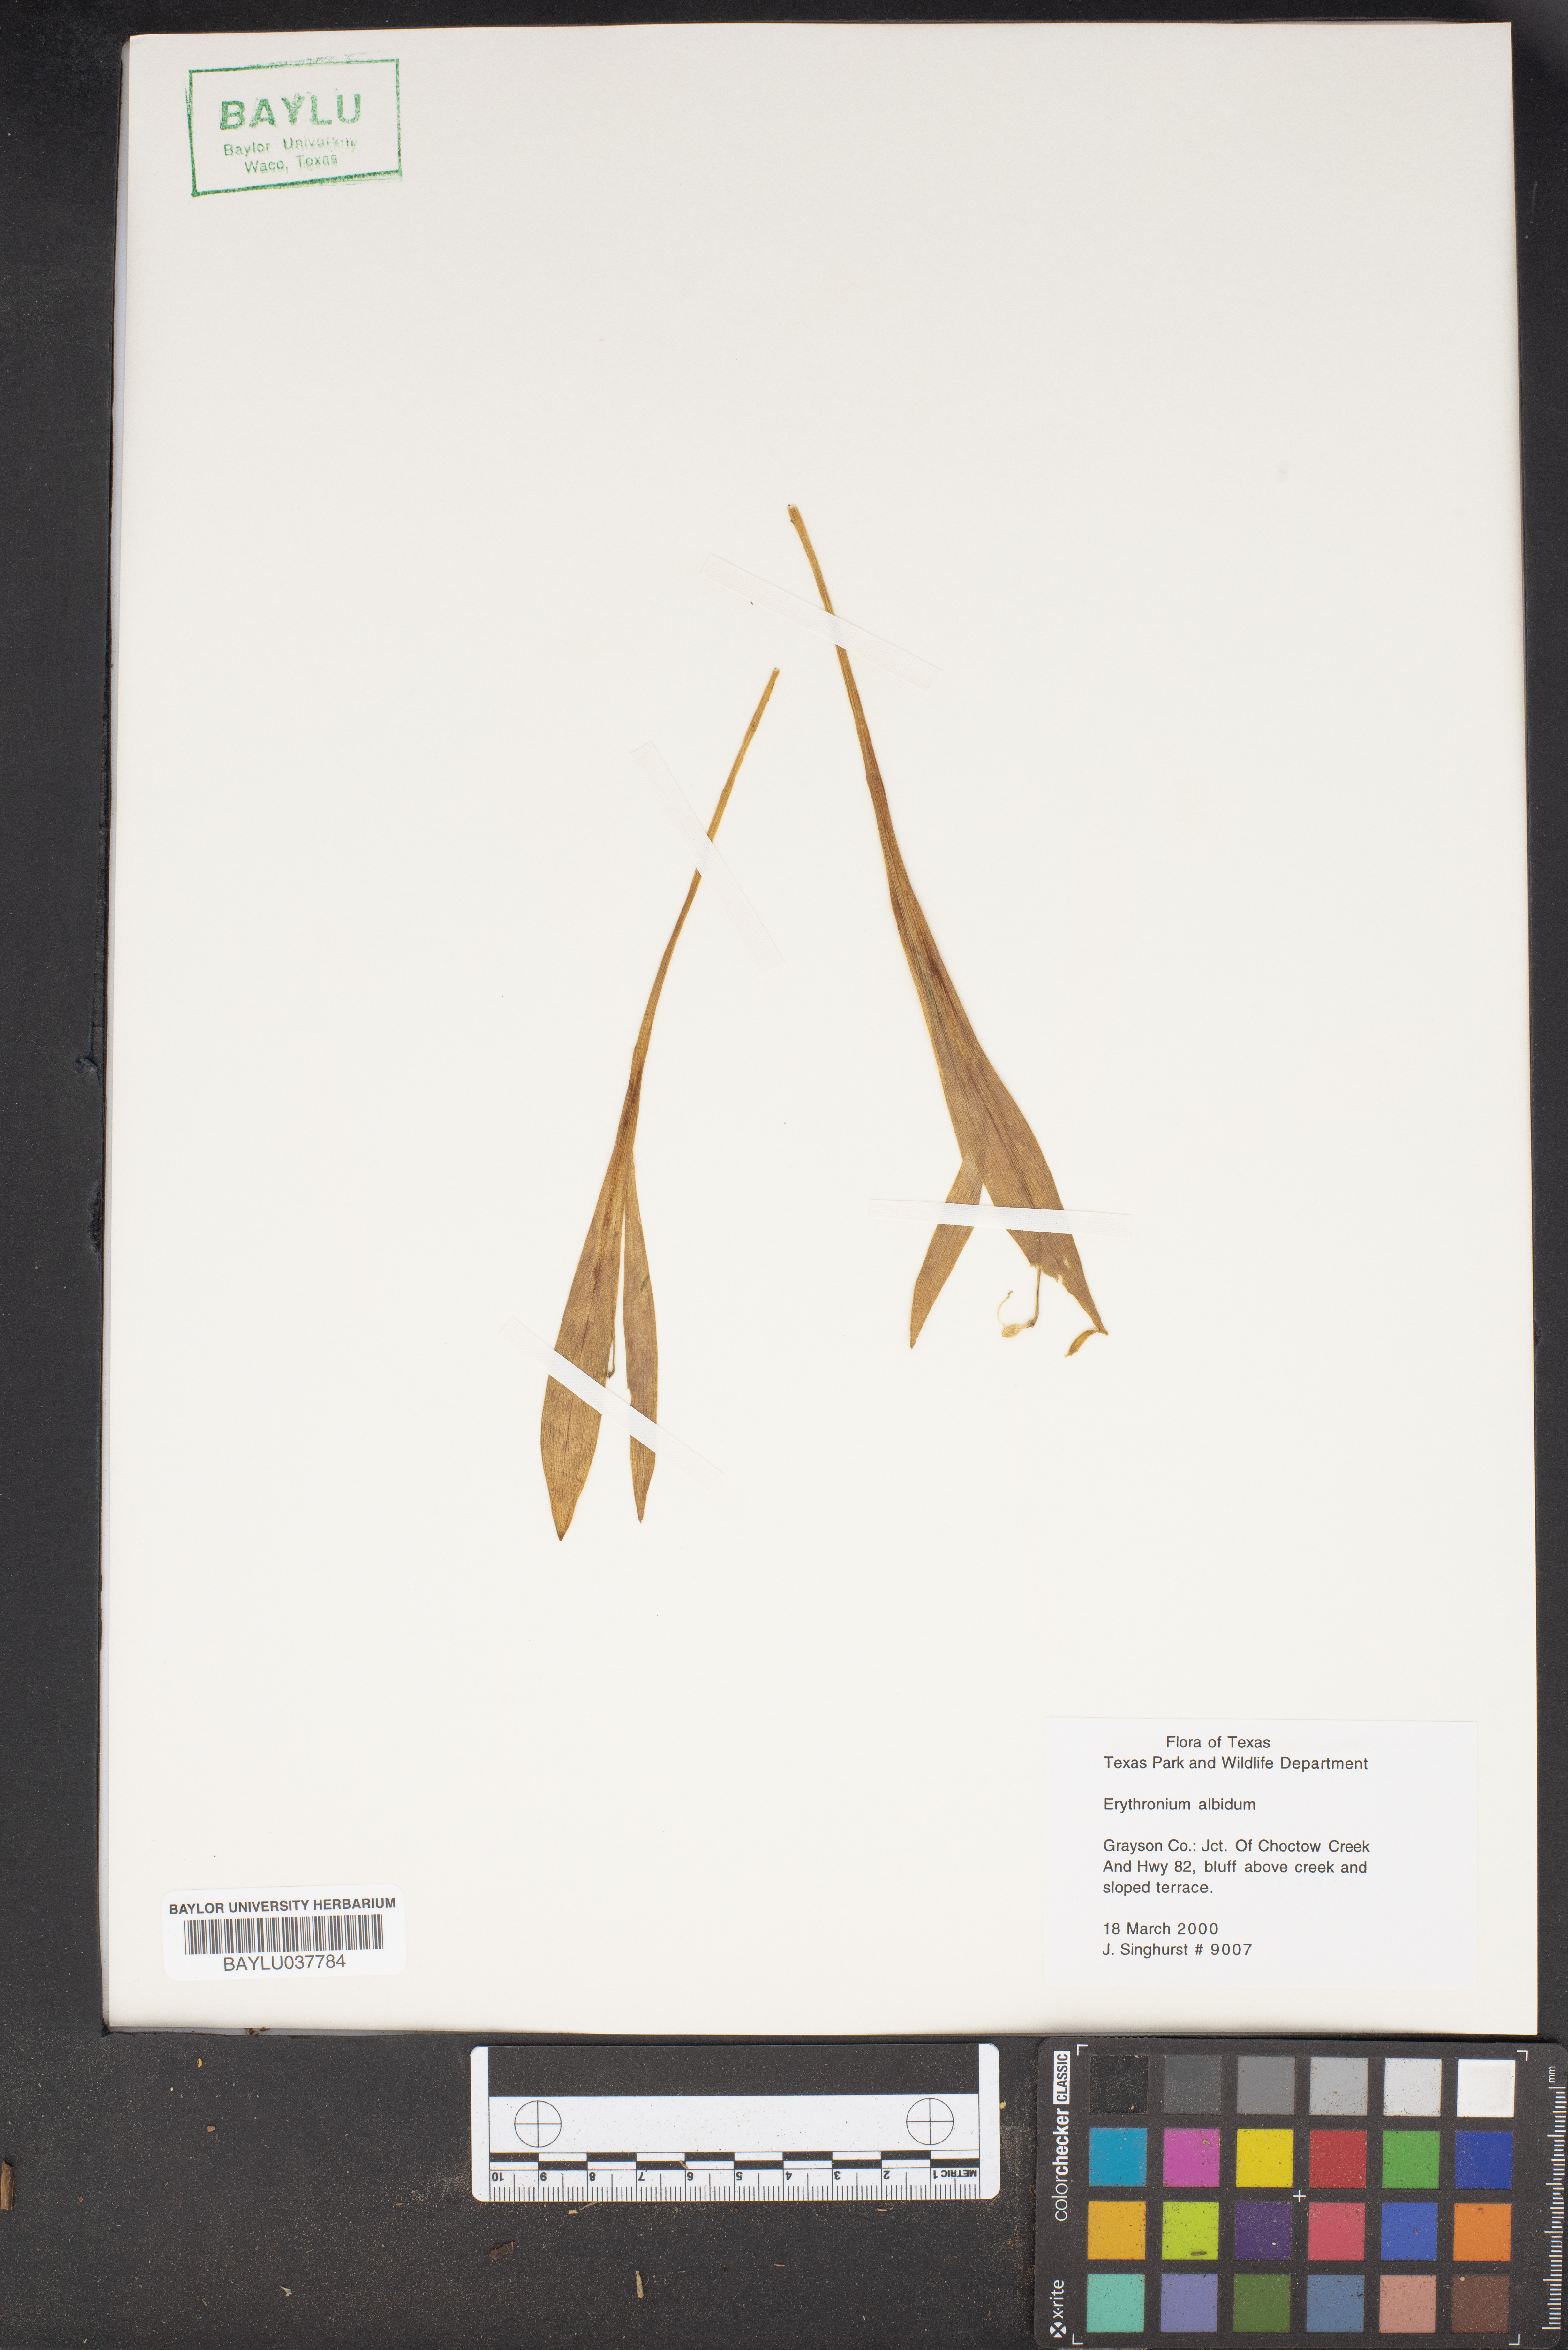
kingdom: Plantae
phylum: Tracheophyta
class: Liliopsida
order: Liliales
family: Liliaceae
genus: Erythronium
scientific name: Erythronium albidum
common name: White trout-lily
